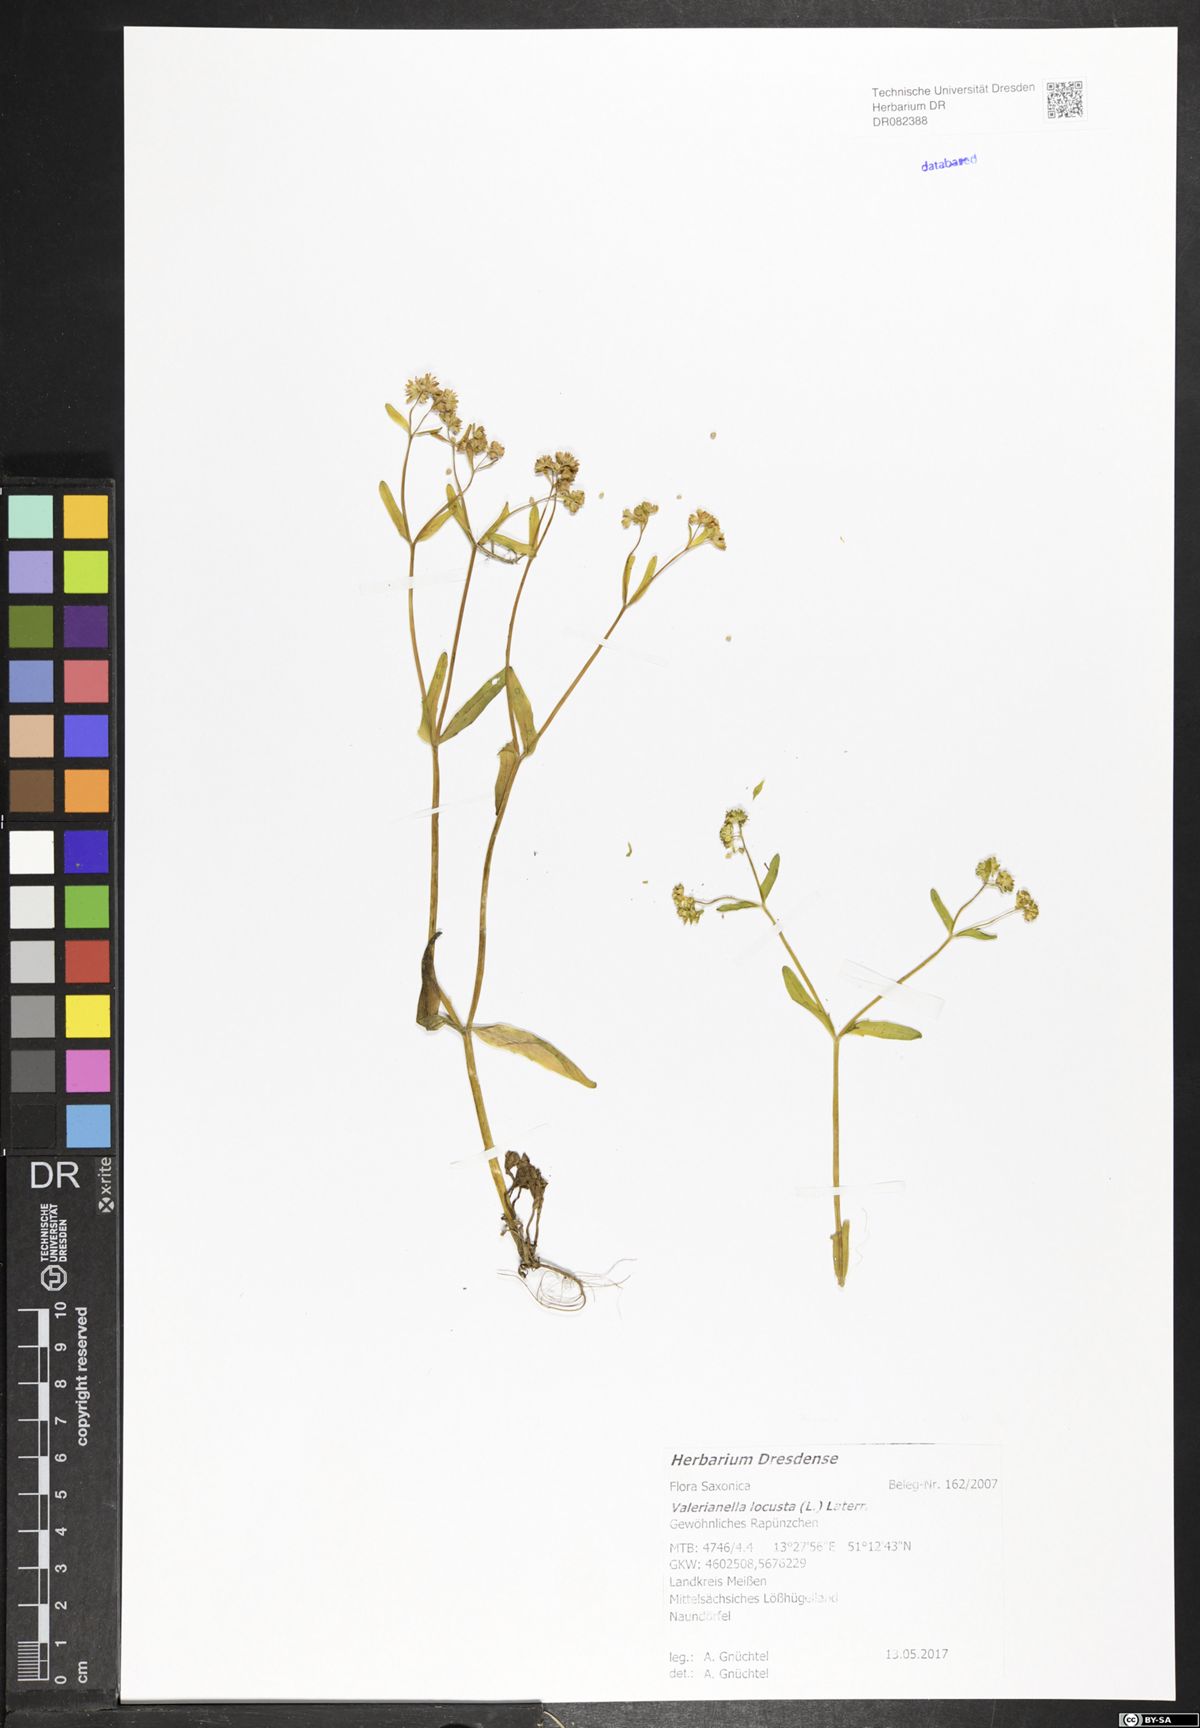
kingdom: Plantae
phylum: Tracheophyta
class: Magnoliopsida
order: Dipsacales
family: Caprifoliaceae
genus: Valerianella
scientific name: Valerianella locusta
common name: Common cornsalad
